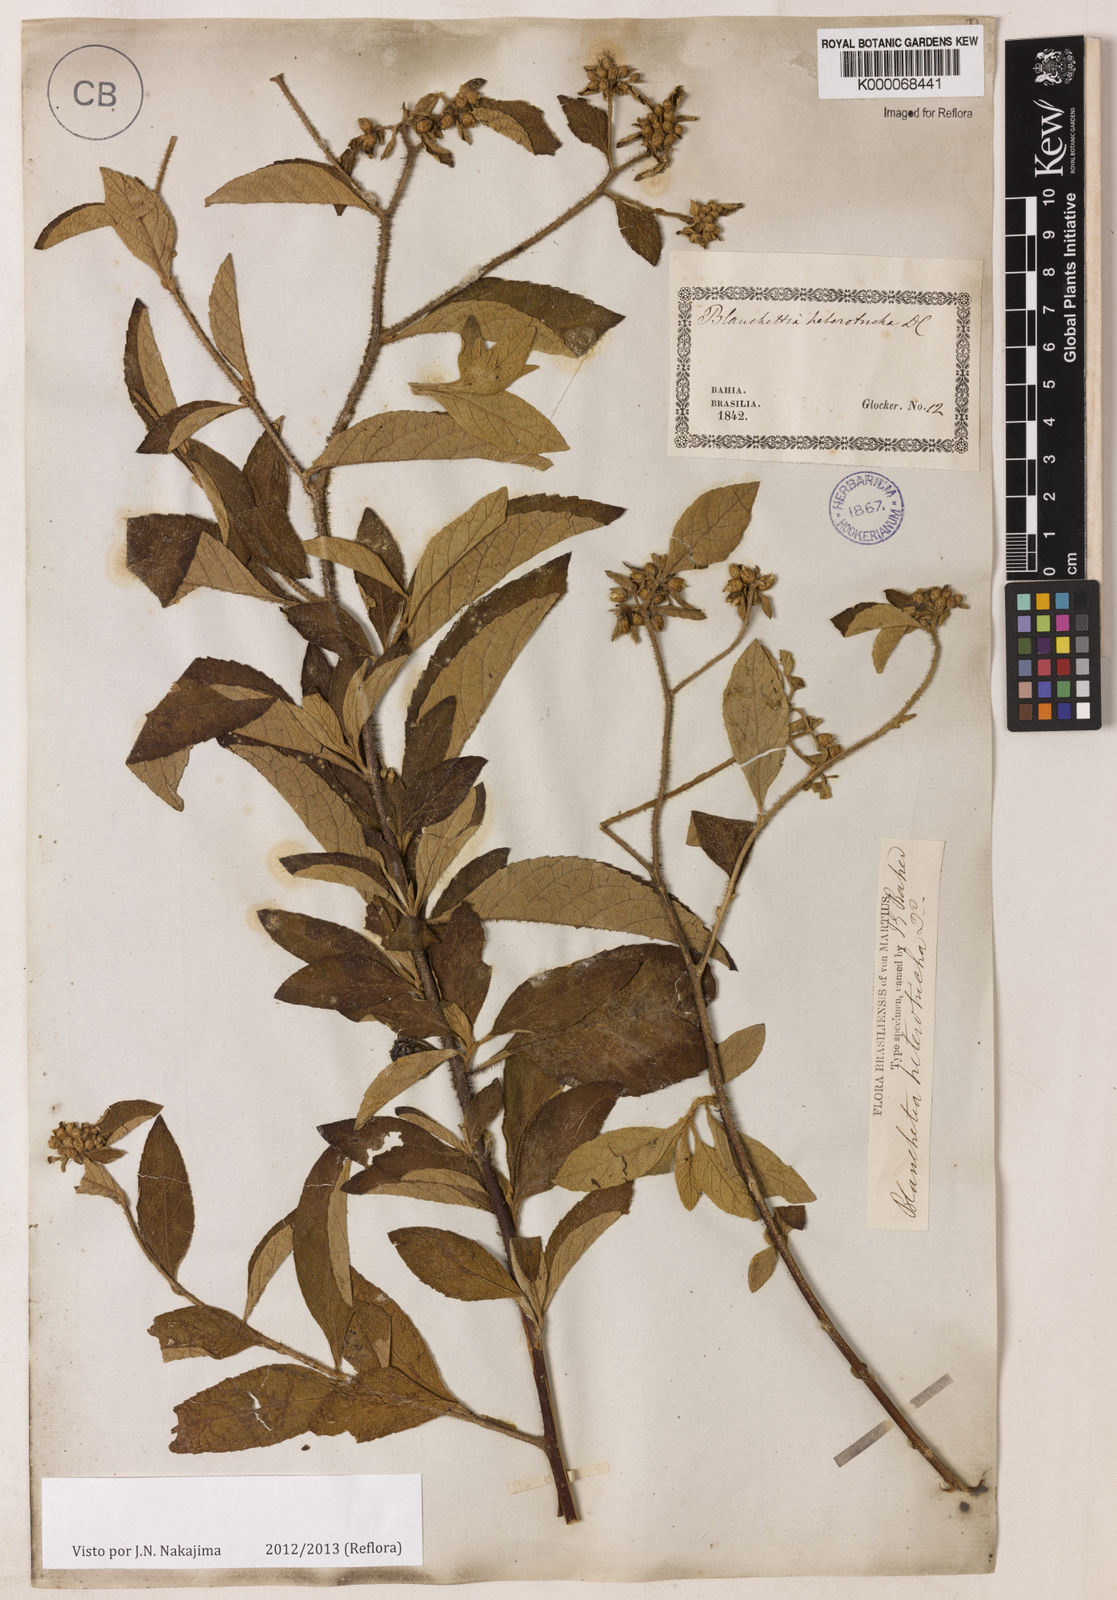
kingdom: Plantae
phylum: Tracheophyta
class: Magnoliopsida
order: Asterales
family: Asteraceae
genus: Blanchetia
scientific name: Blanchetia heterotricha
